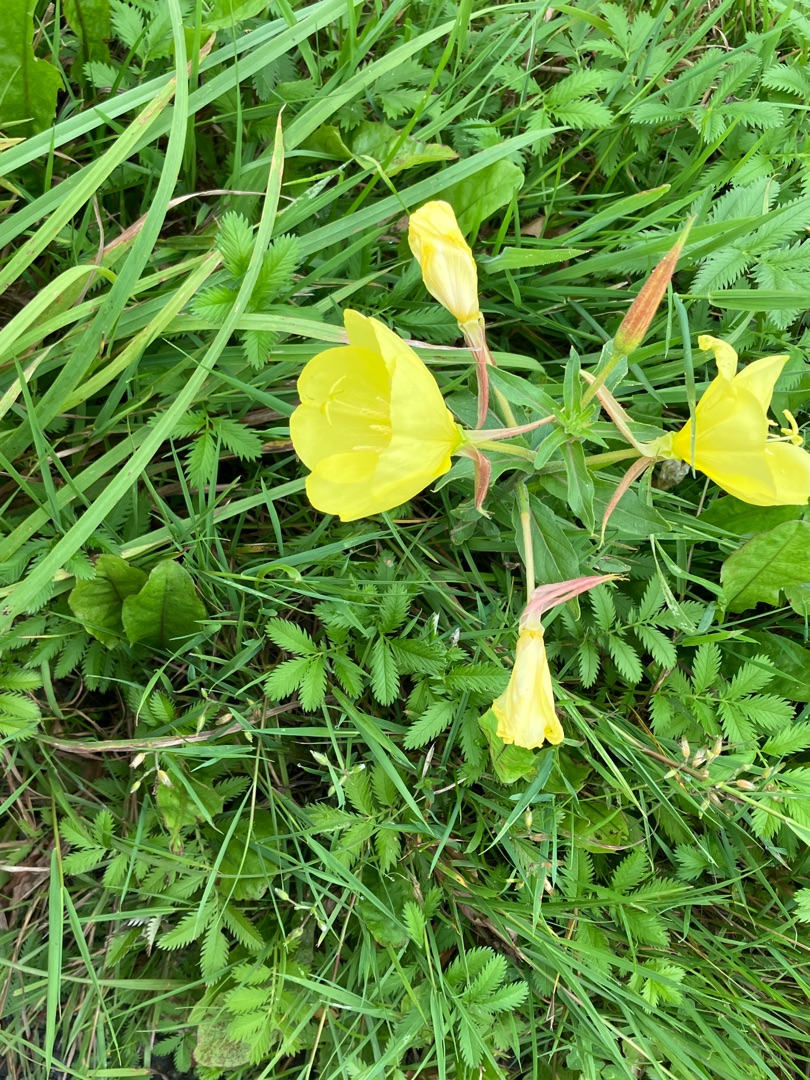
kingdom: Plantae
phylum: Tracheophyta
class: Magnoliopsida
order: Myrtales
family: Onagraceae
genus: Oenothera
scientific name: Oenothera glazioviana
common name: Kæmpe-natlys
